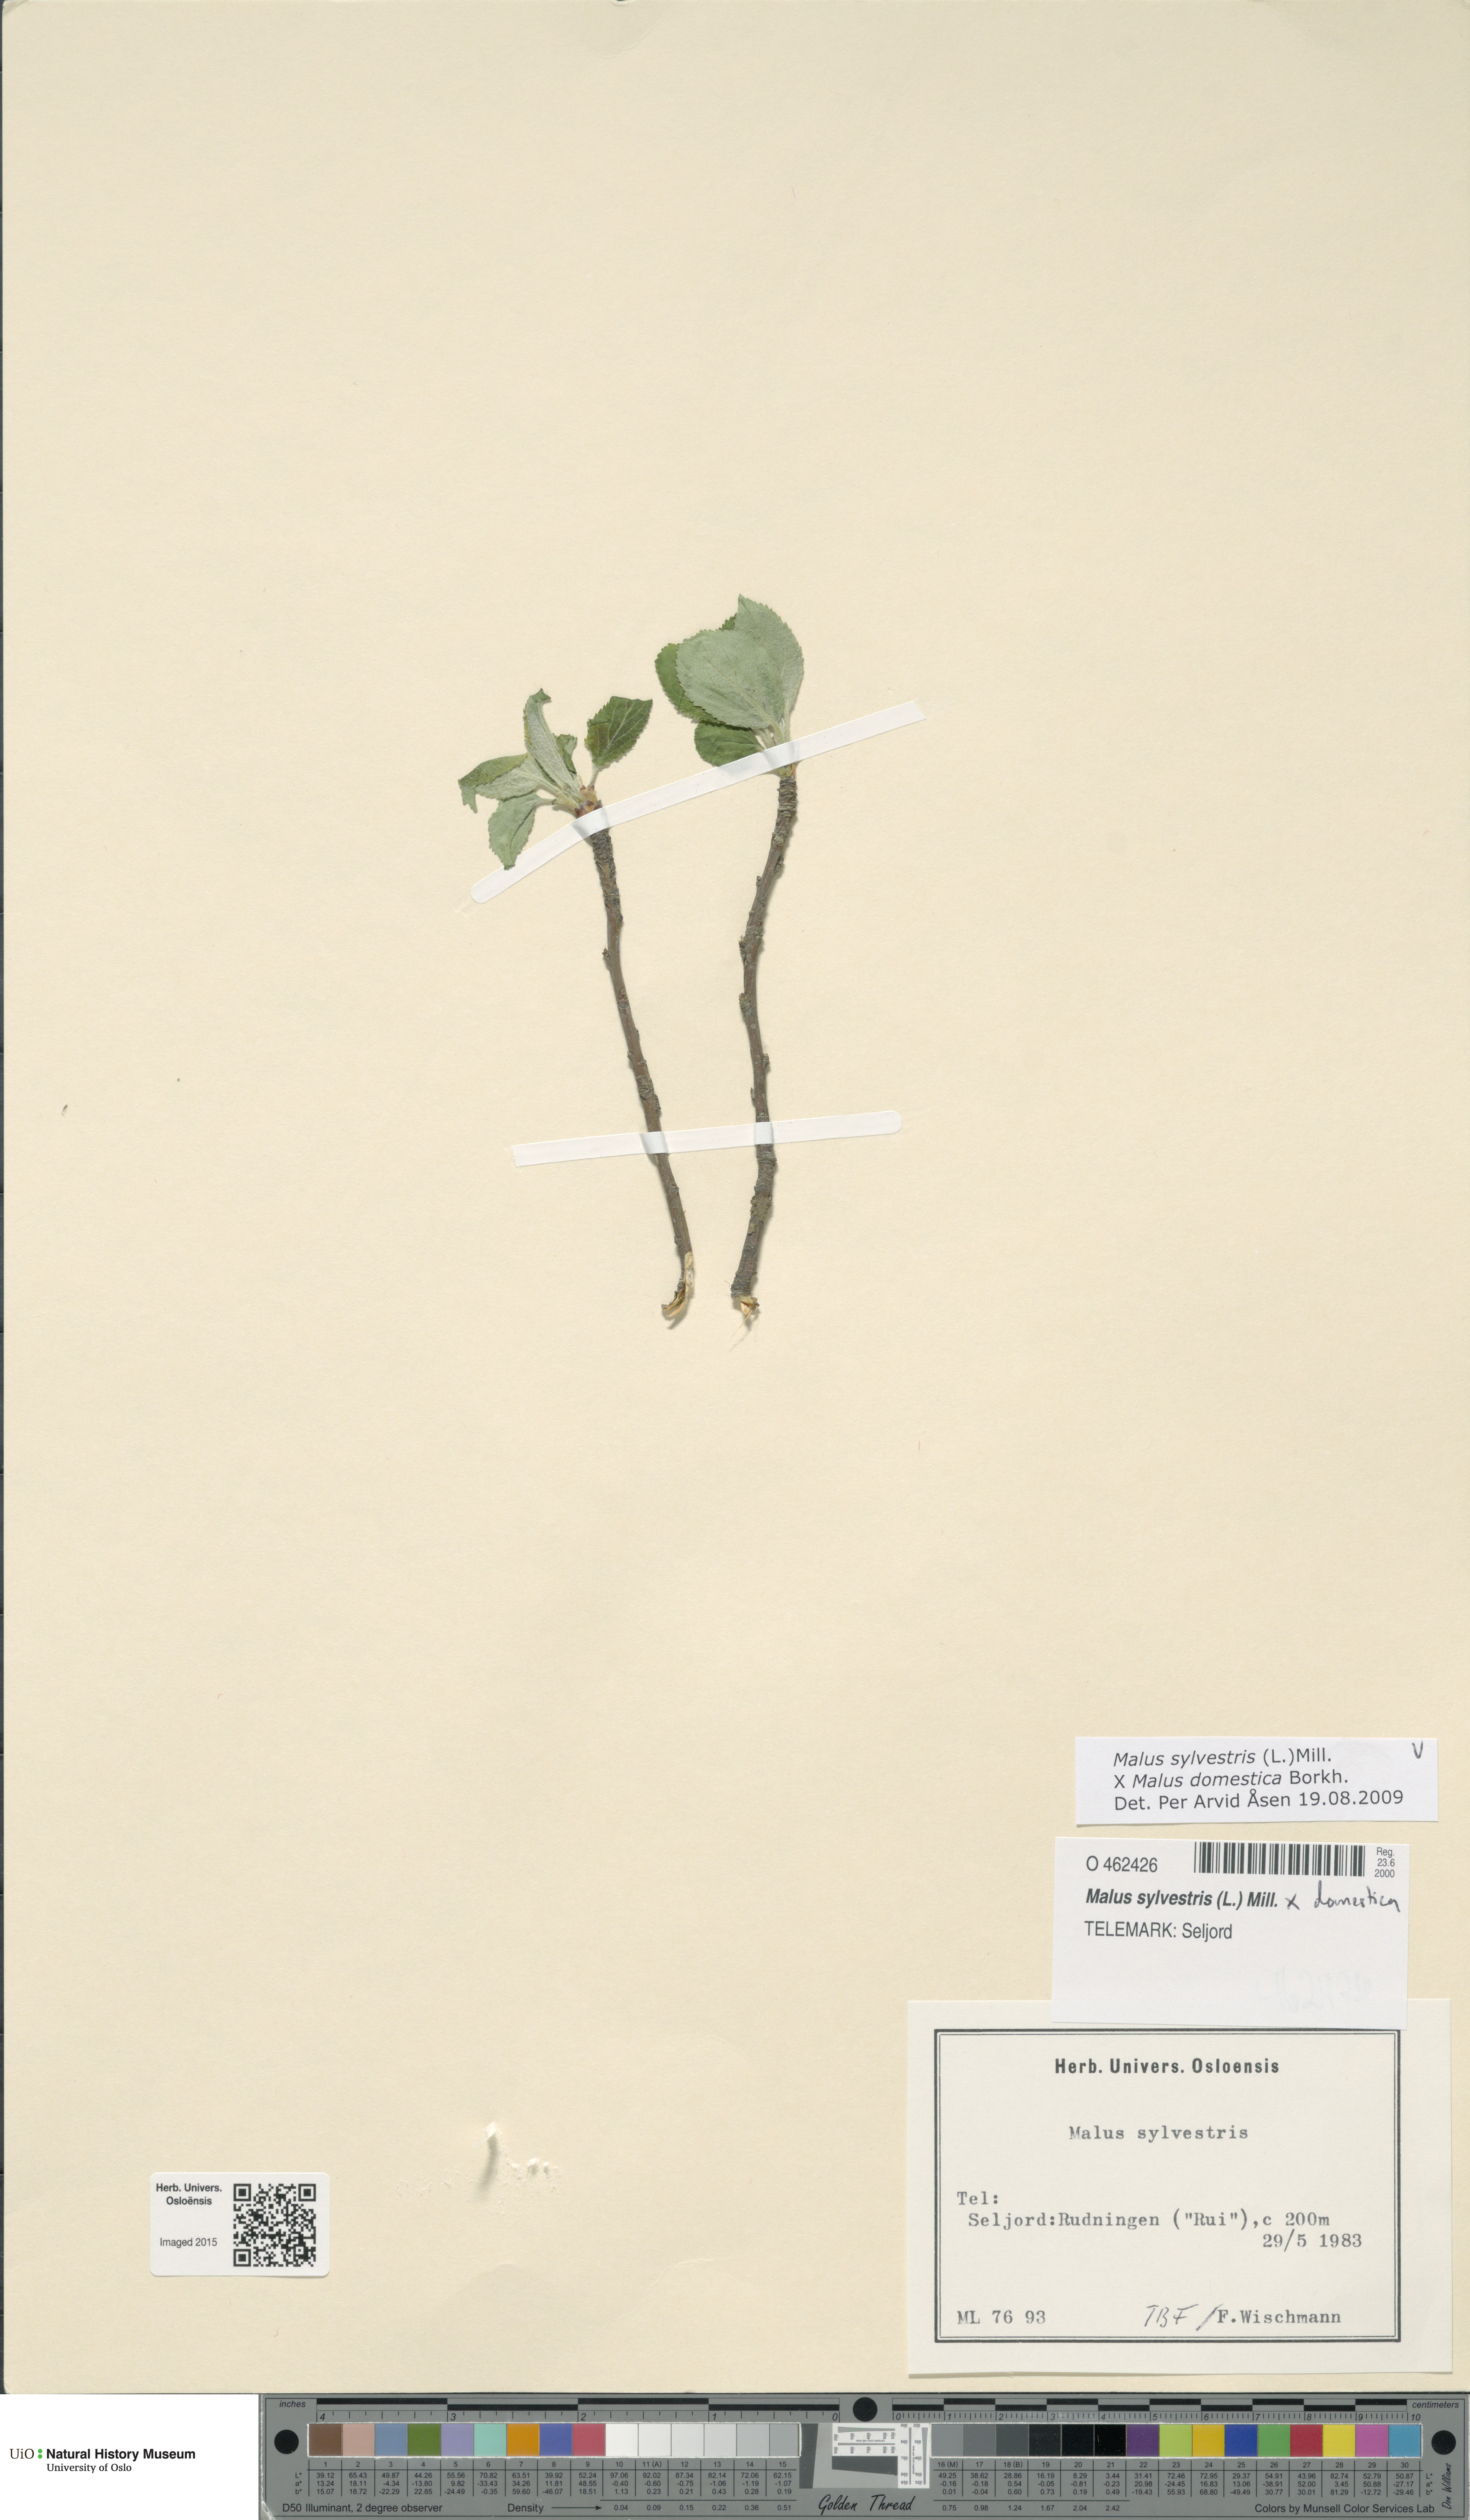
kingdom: Plantae
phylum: Tracheophyta
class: Magnoliopsida
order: Rosales
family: Rosaceae
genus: Malus
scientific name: Malus
